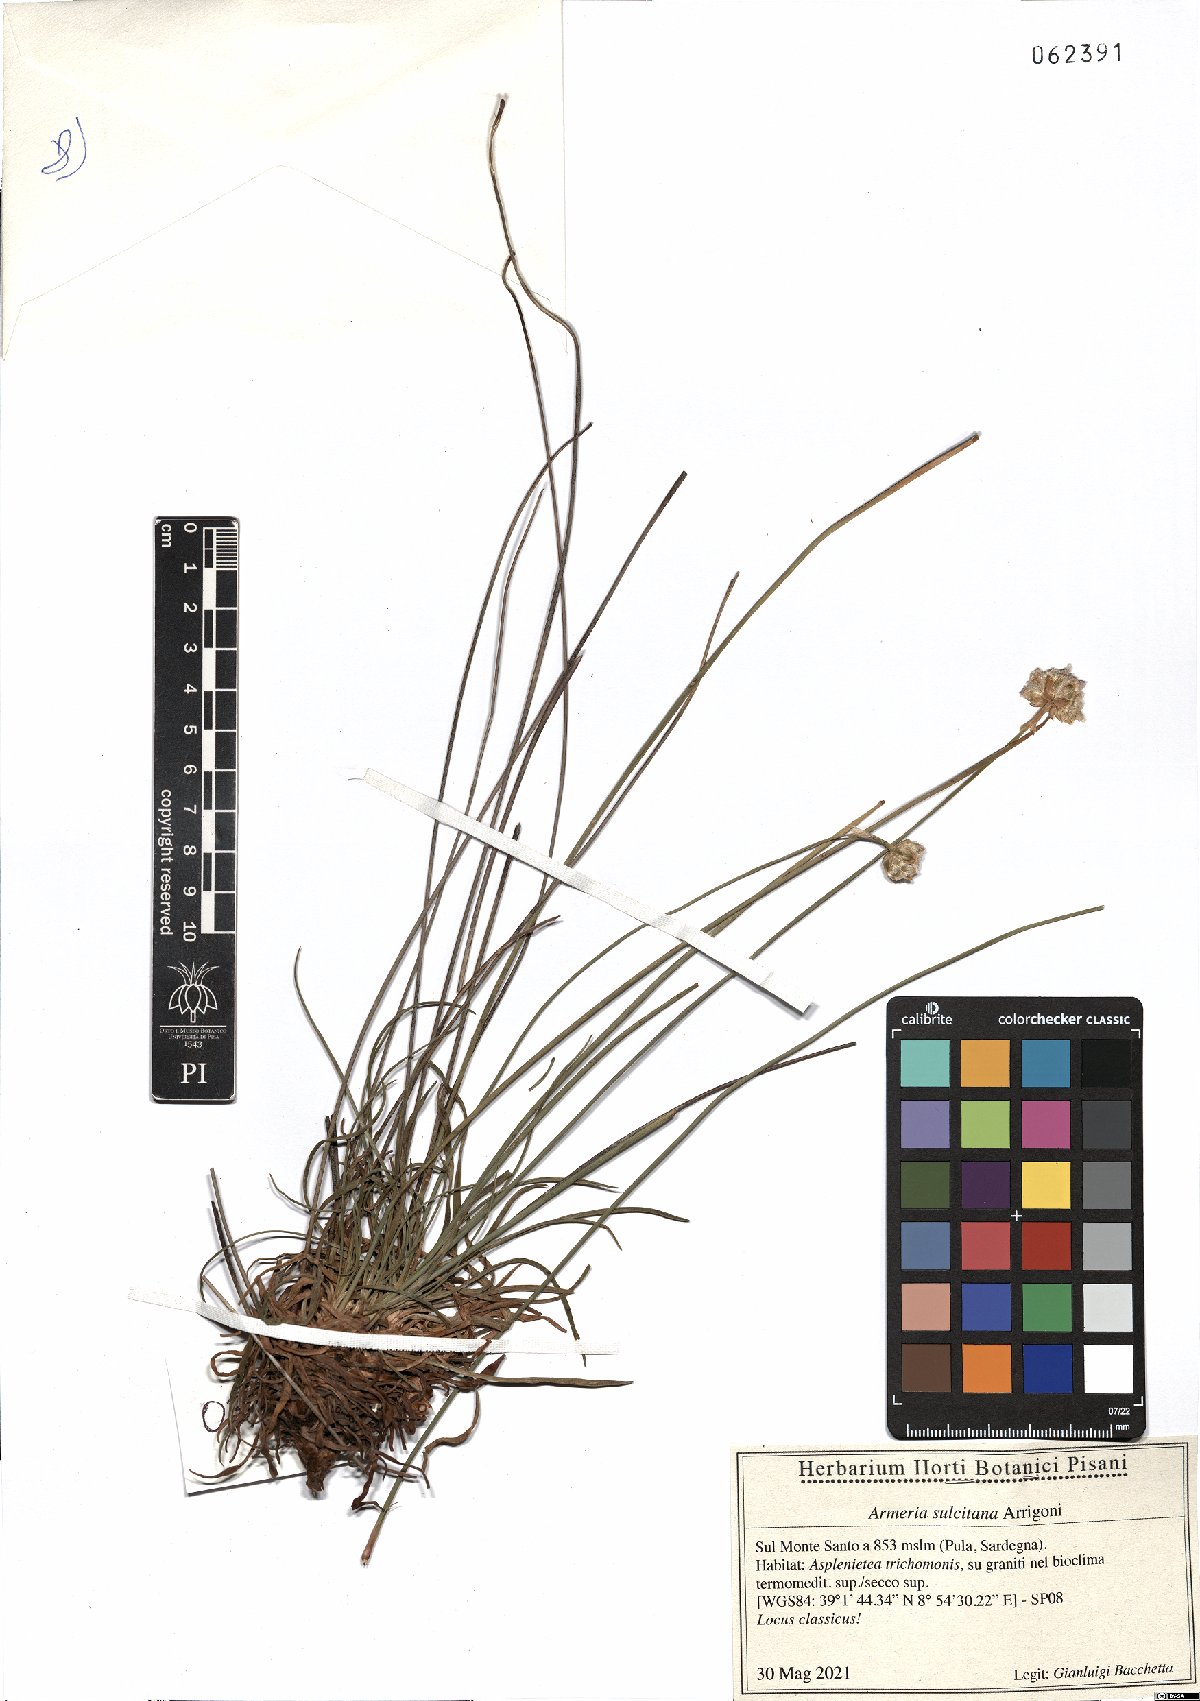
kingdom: Plantae
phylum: Tracheophyta
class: Magnoliopsida
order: Caryophyllales
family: Plumbaginaceae
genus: Armeria
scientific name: Armeria sulcitana
